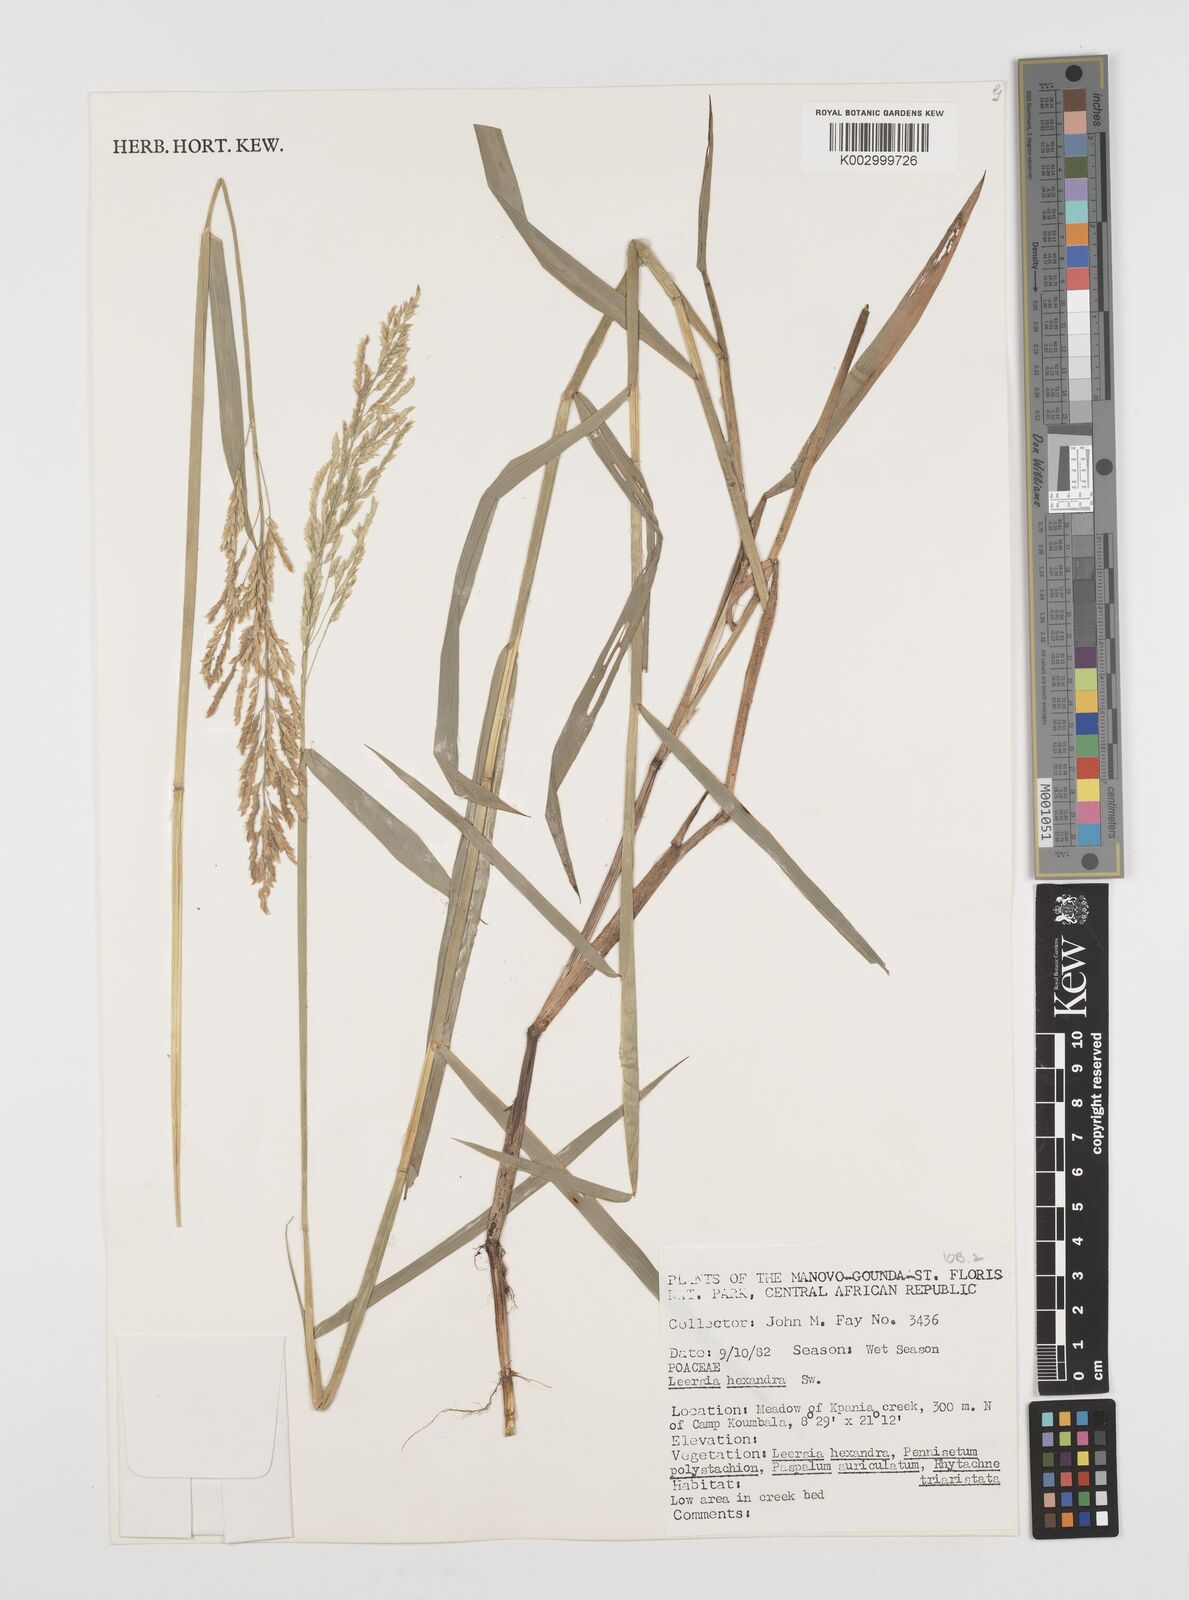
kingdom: Plantae
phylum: Tracheophyta
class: Liliopsida
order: Poales
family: Poaceae
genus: Leersia
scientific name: Leersia hexandra
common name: Southern cut grass
